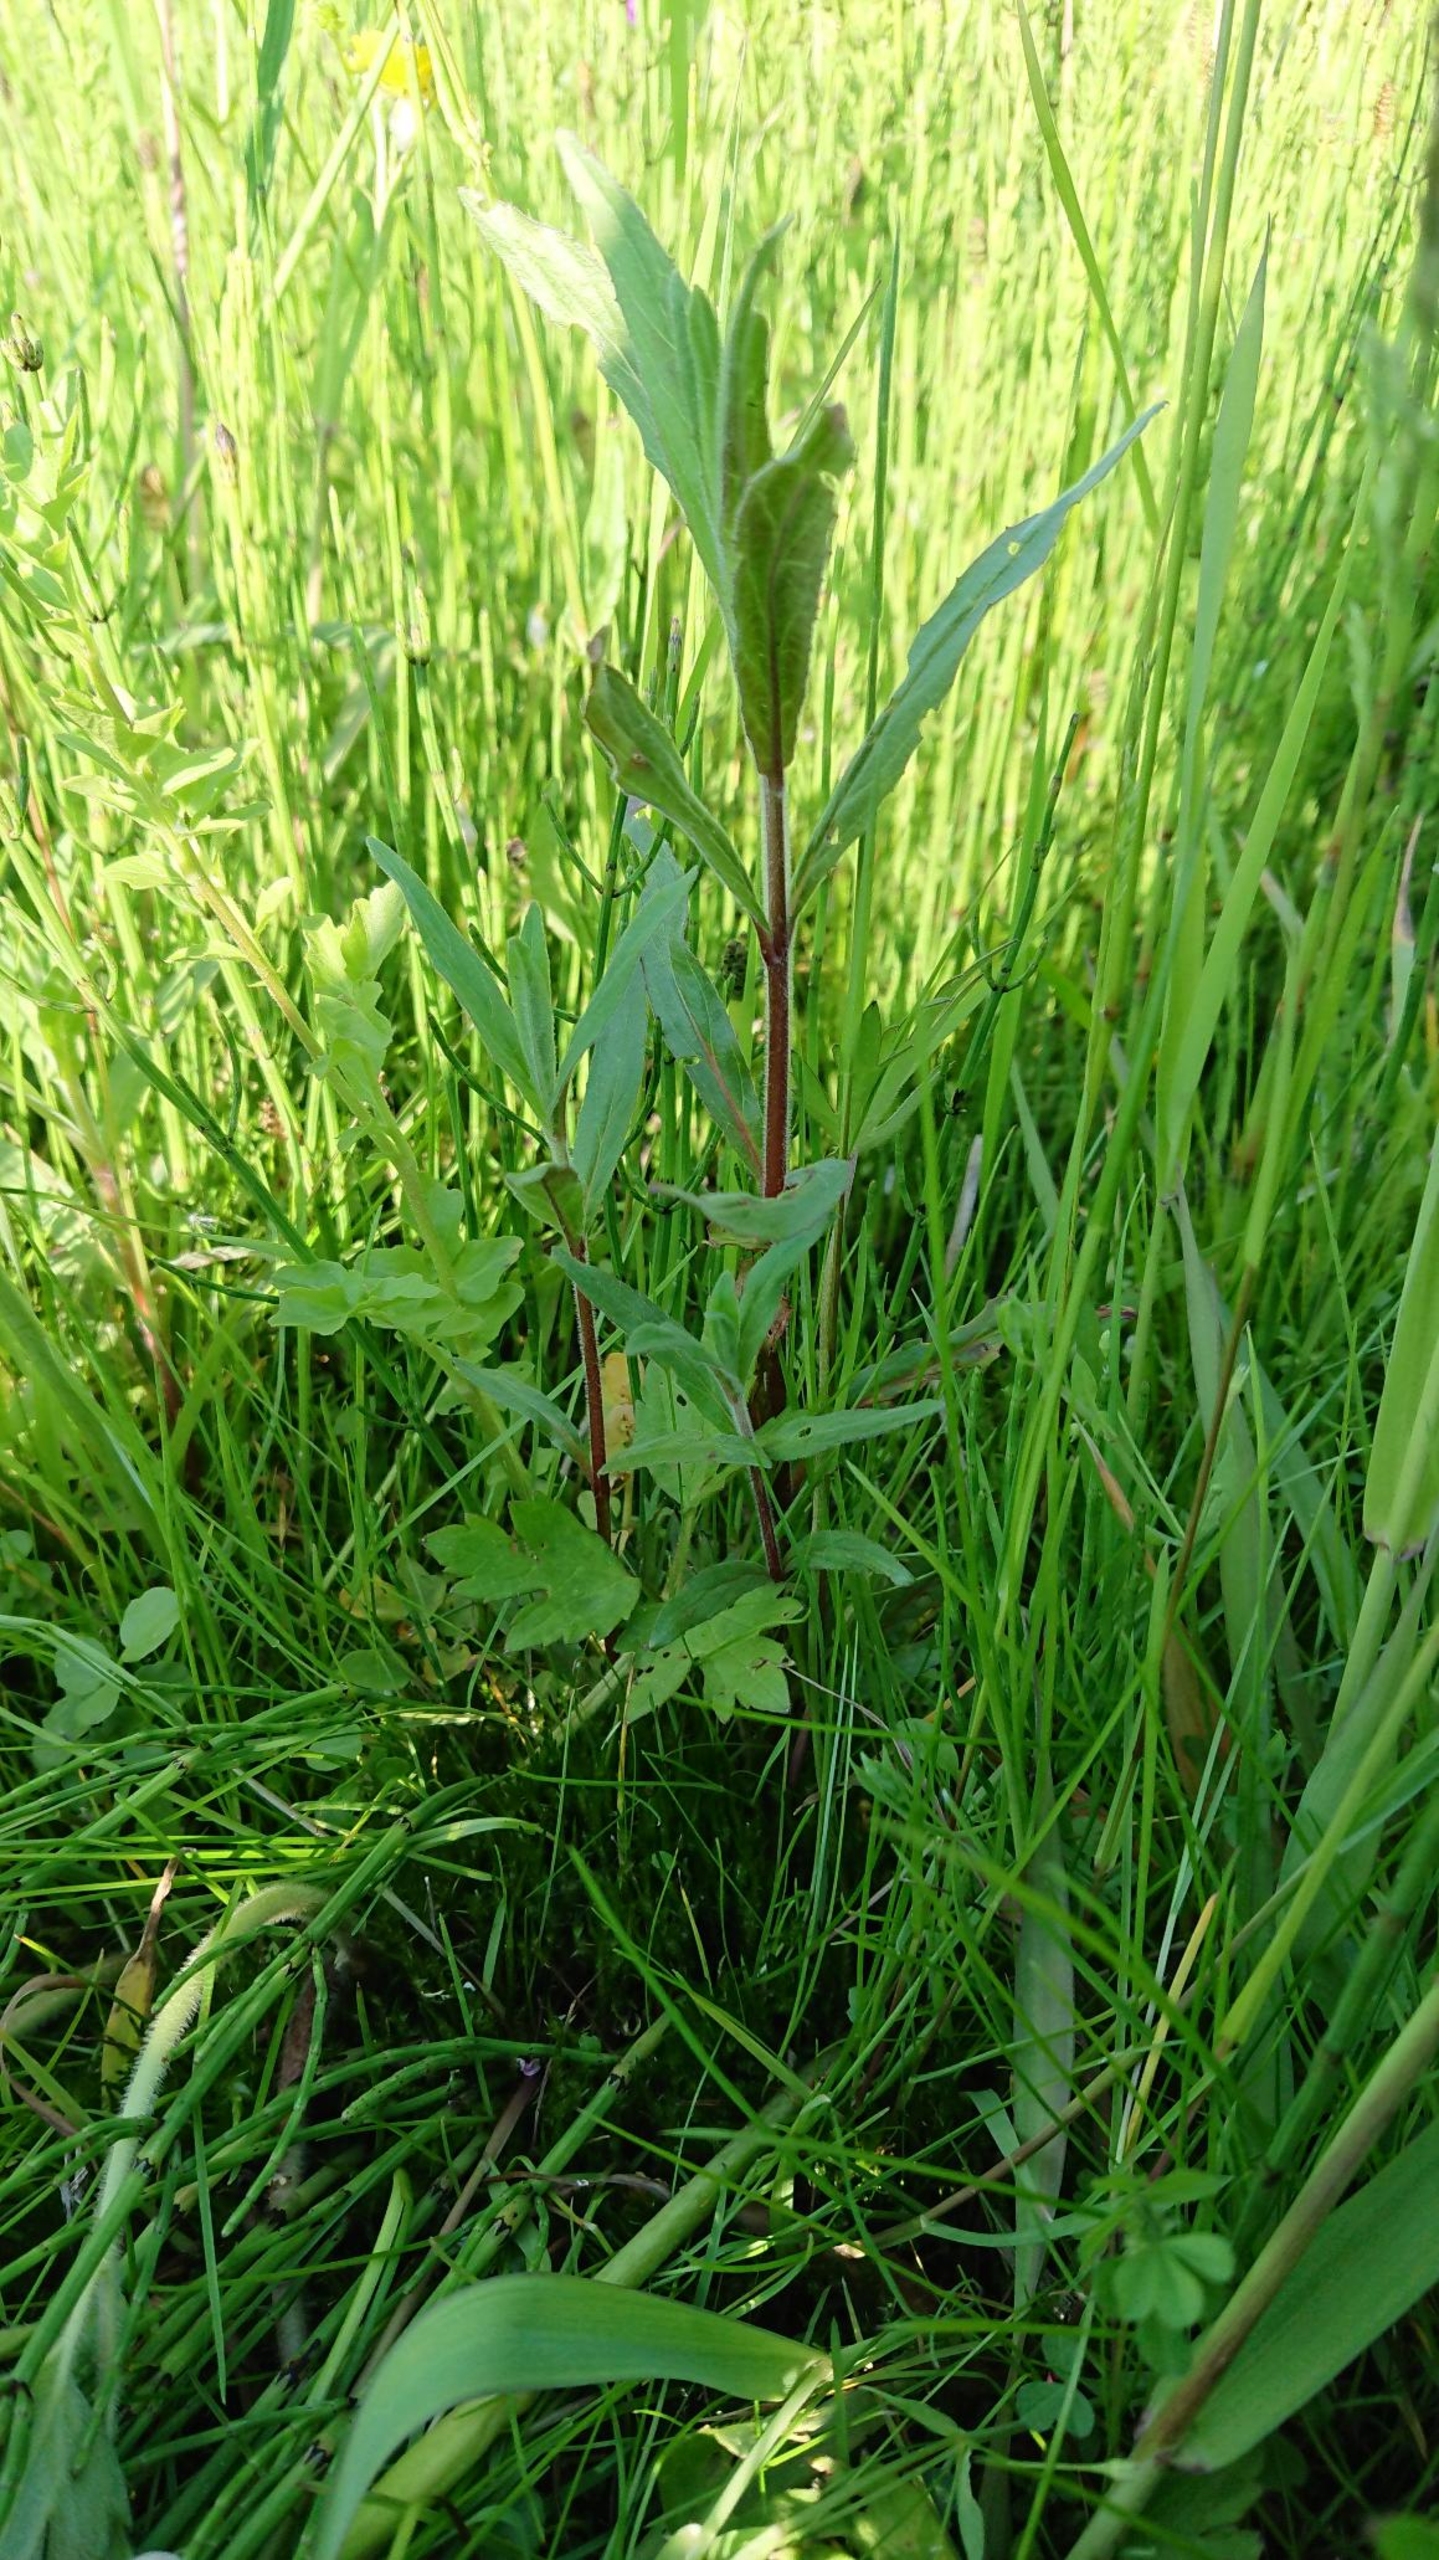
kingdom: Plantae
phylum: Tracheophyta
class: Magnoliopsida
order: Myrtales
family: Onagraceae
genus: Epilobium
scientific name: Epilobium parviflorum
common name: Dunet dueurt
